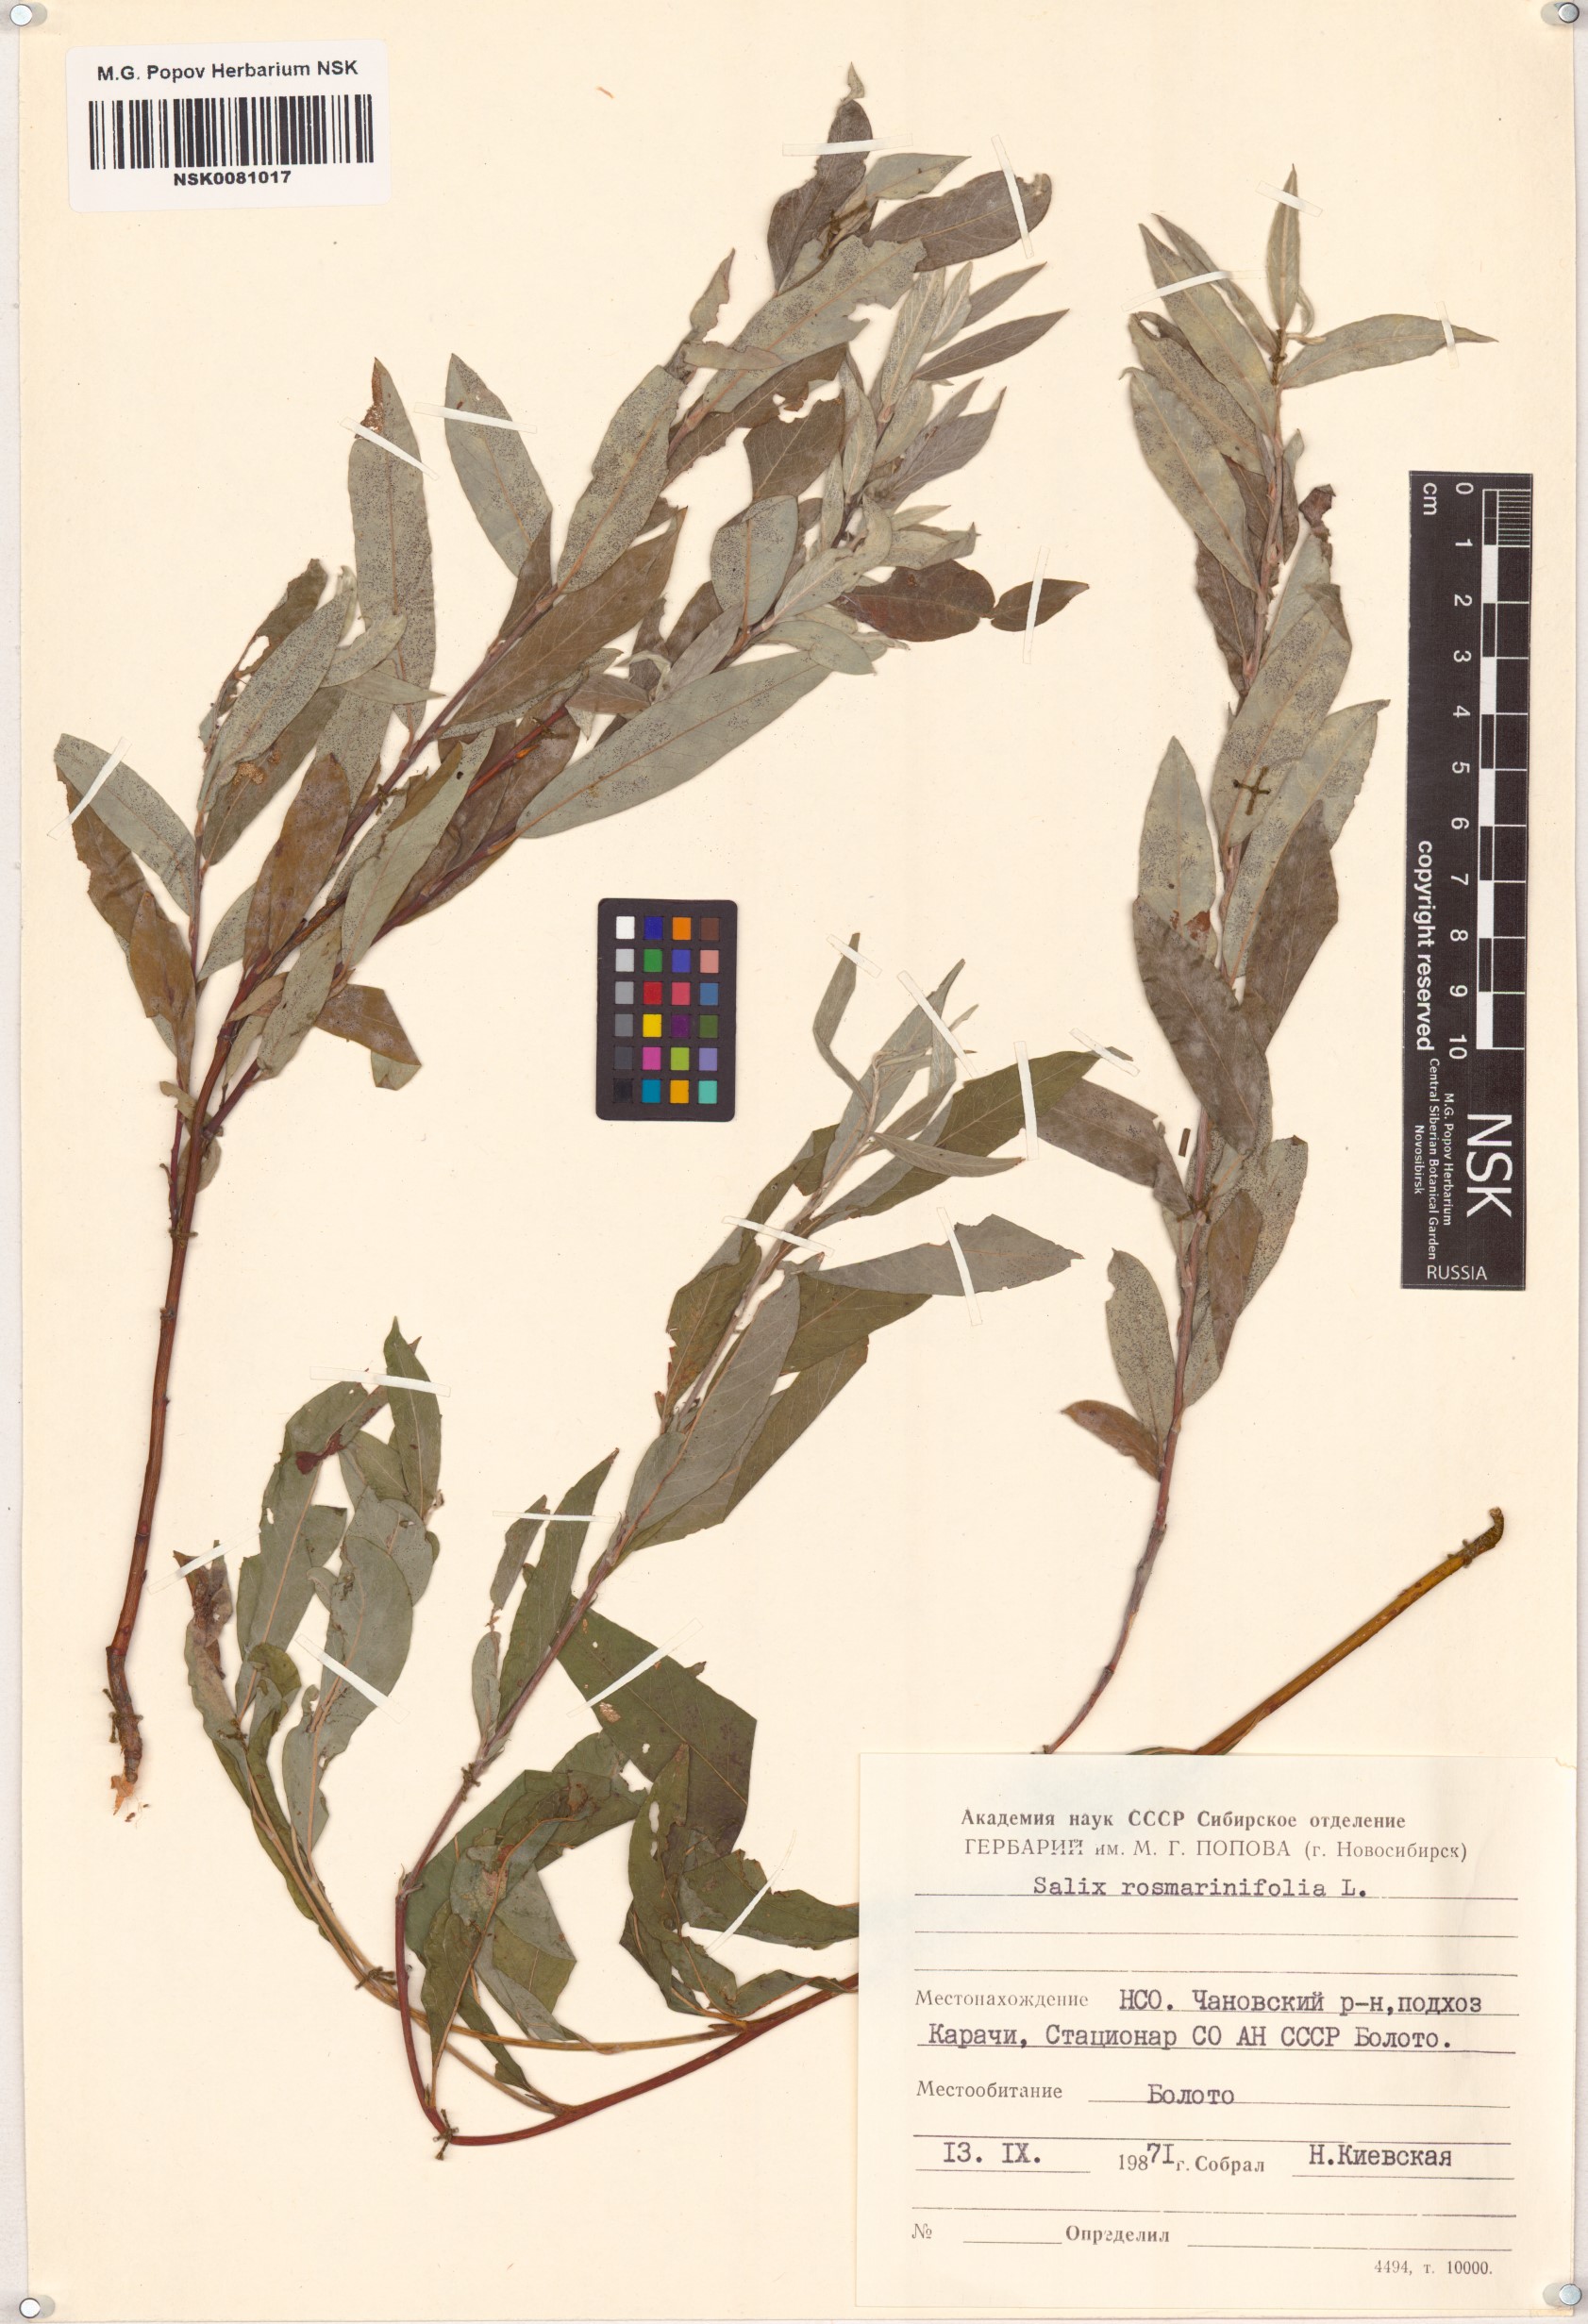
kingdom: Plantae
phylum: Tracheophyta
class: Magnoliopsida
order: Malpighiales
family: Salicaceae
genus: Salix
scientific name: Salix rosmarinifolia
